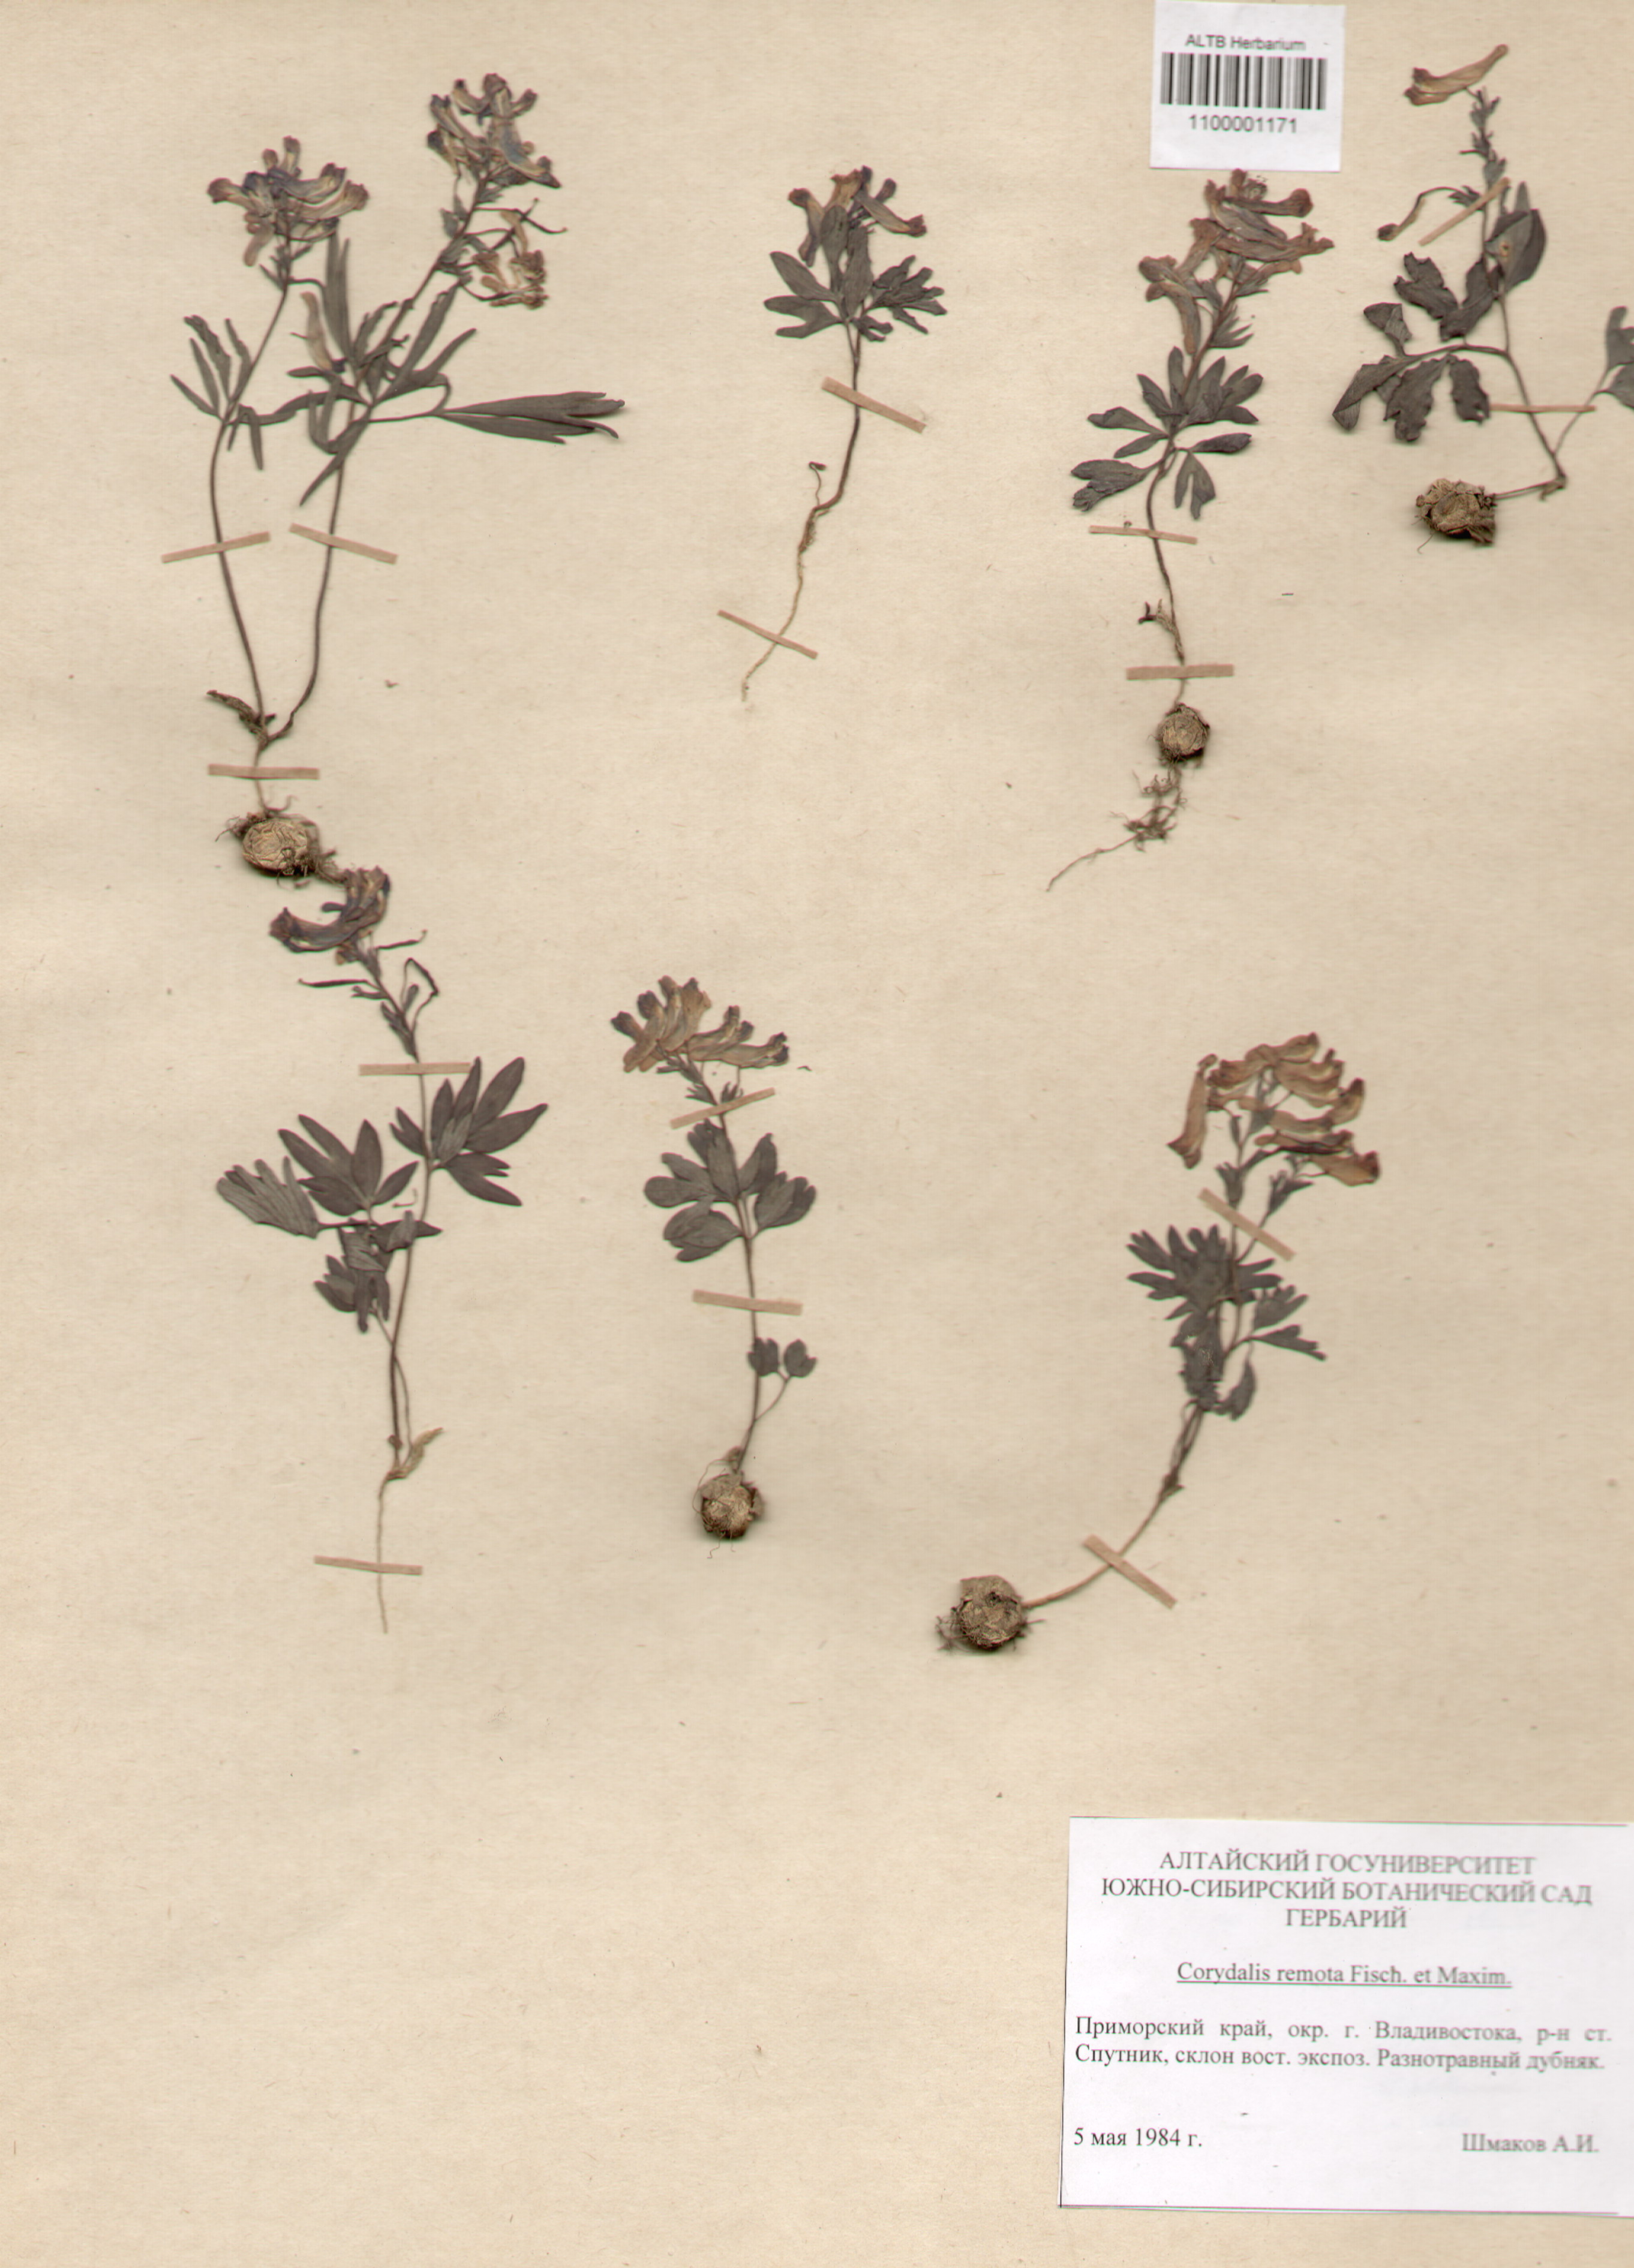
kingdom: Plantae
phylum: Tracheophyta
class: Magnoliopsida
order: Ranunculales
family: Papaveraceae
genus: Corydalis
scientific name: Corydalis turtschaninovii
